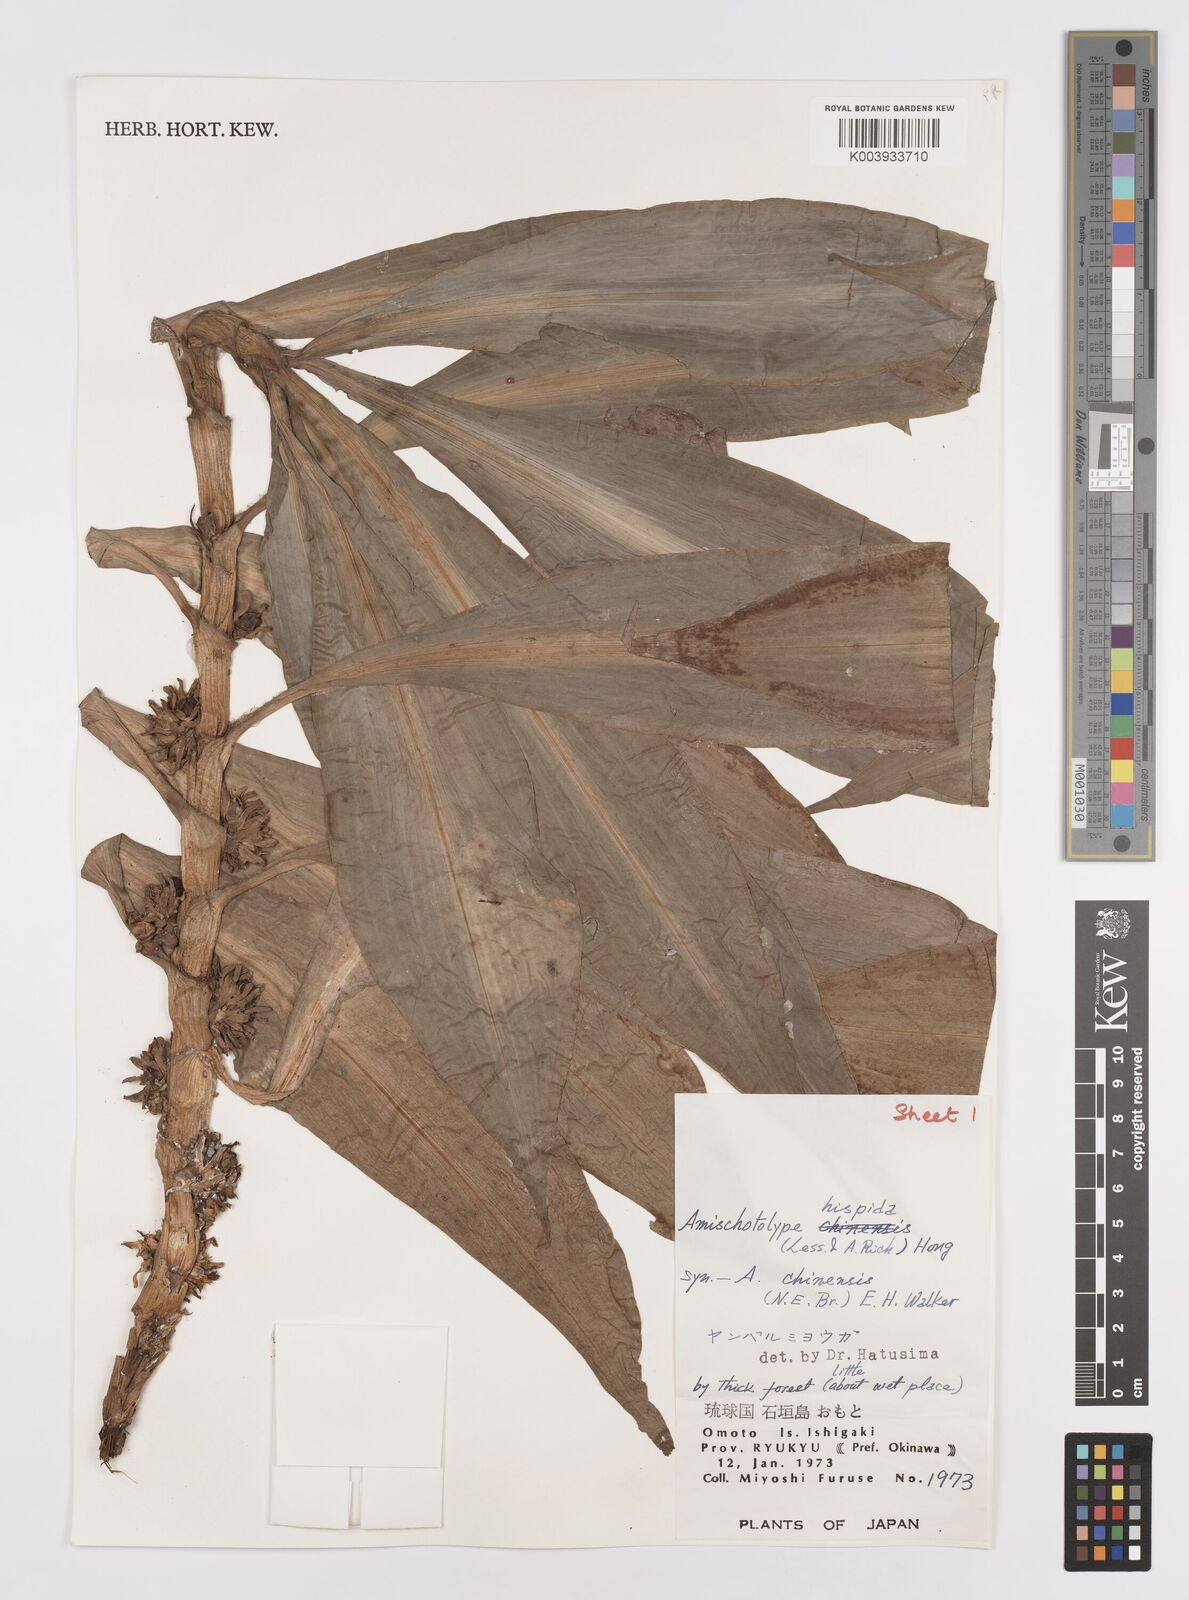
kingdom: Plantae
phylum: Tracheophyta
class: Liliopsida
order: Commelinales
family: Commelinaceae
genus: Amischotolype
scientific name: Amischotolype hispida
